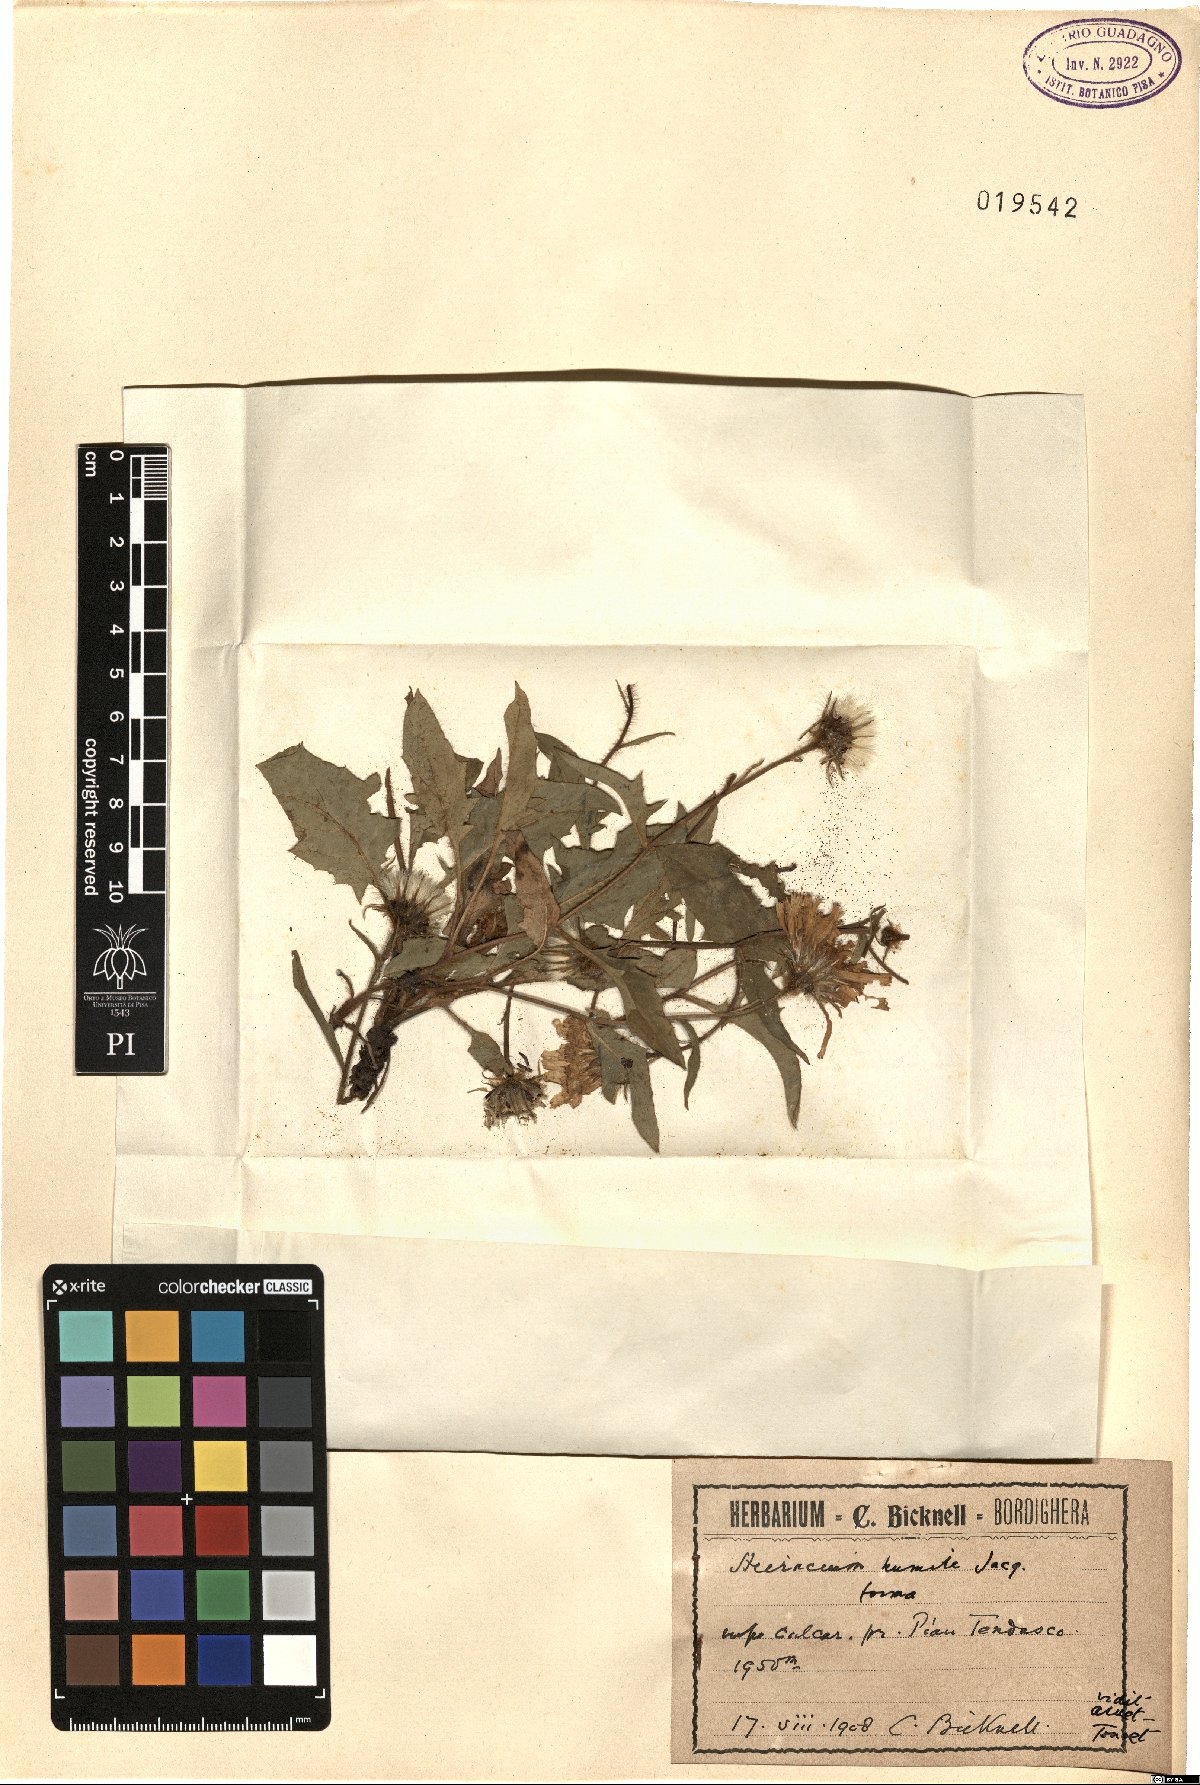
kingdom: Plantae
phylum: Tracheophyta
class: Magnoliopsida
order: Asterales
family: Asteraceae
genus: Hieracium
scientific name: Hieracium humile
